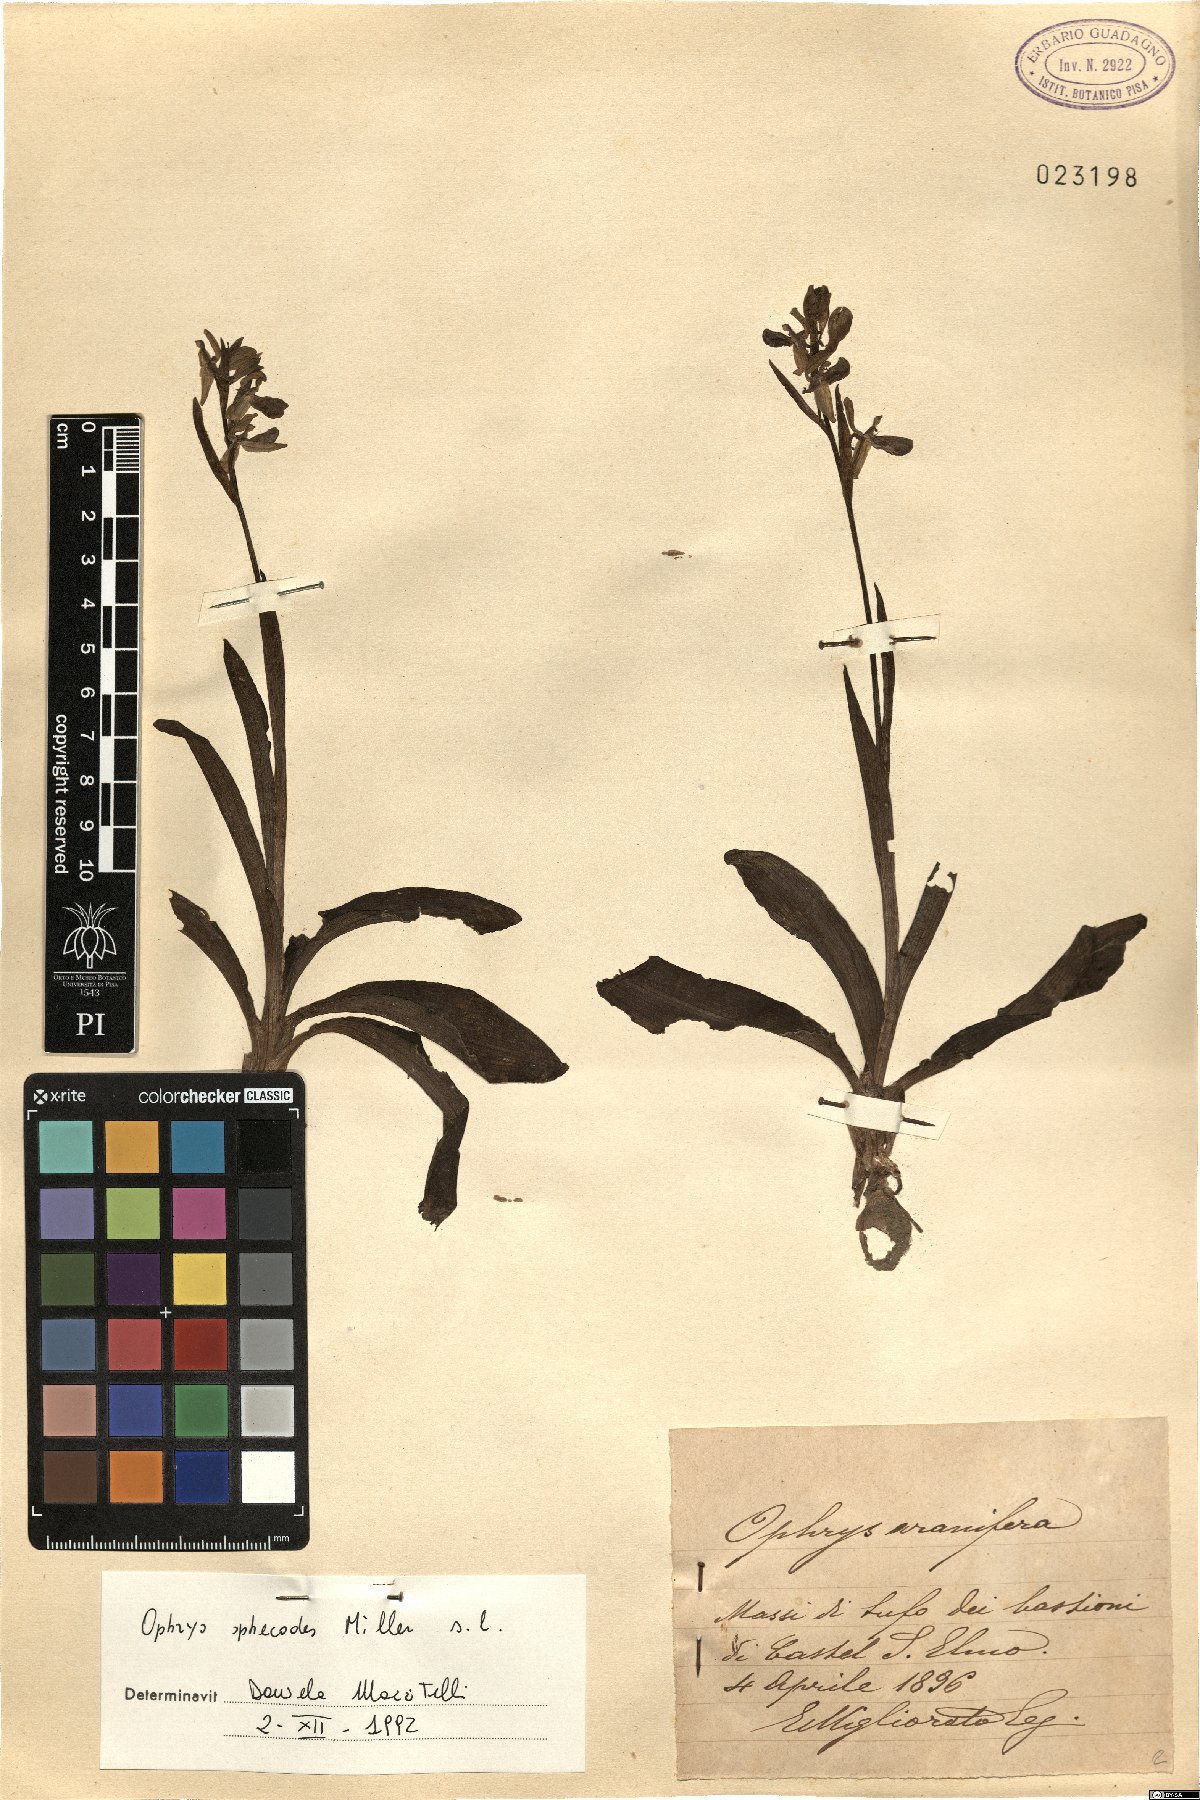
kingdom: Plantae
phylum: Tracheophyta
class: Liliopsida
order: Asparagales
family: Orchidaceae
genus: Ophrys
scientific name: Ophrys sphegodes
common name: Early spider-orchid
